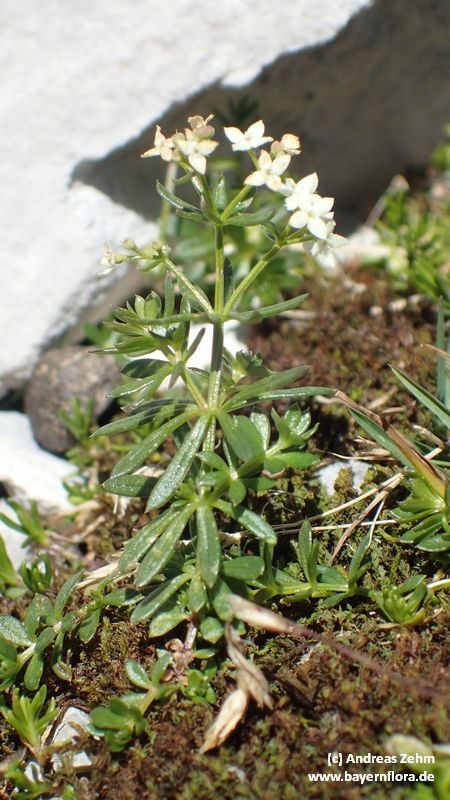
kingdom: Plantae
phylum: Tracheophyta
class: Magnoliopsida
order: Gentianales
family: Rubiaceae
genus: Galium
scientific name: Galium anisophyllon
